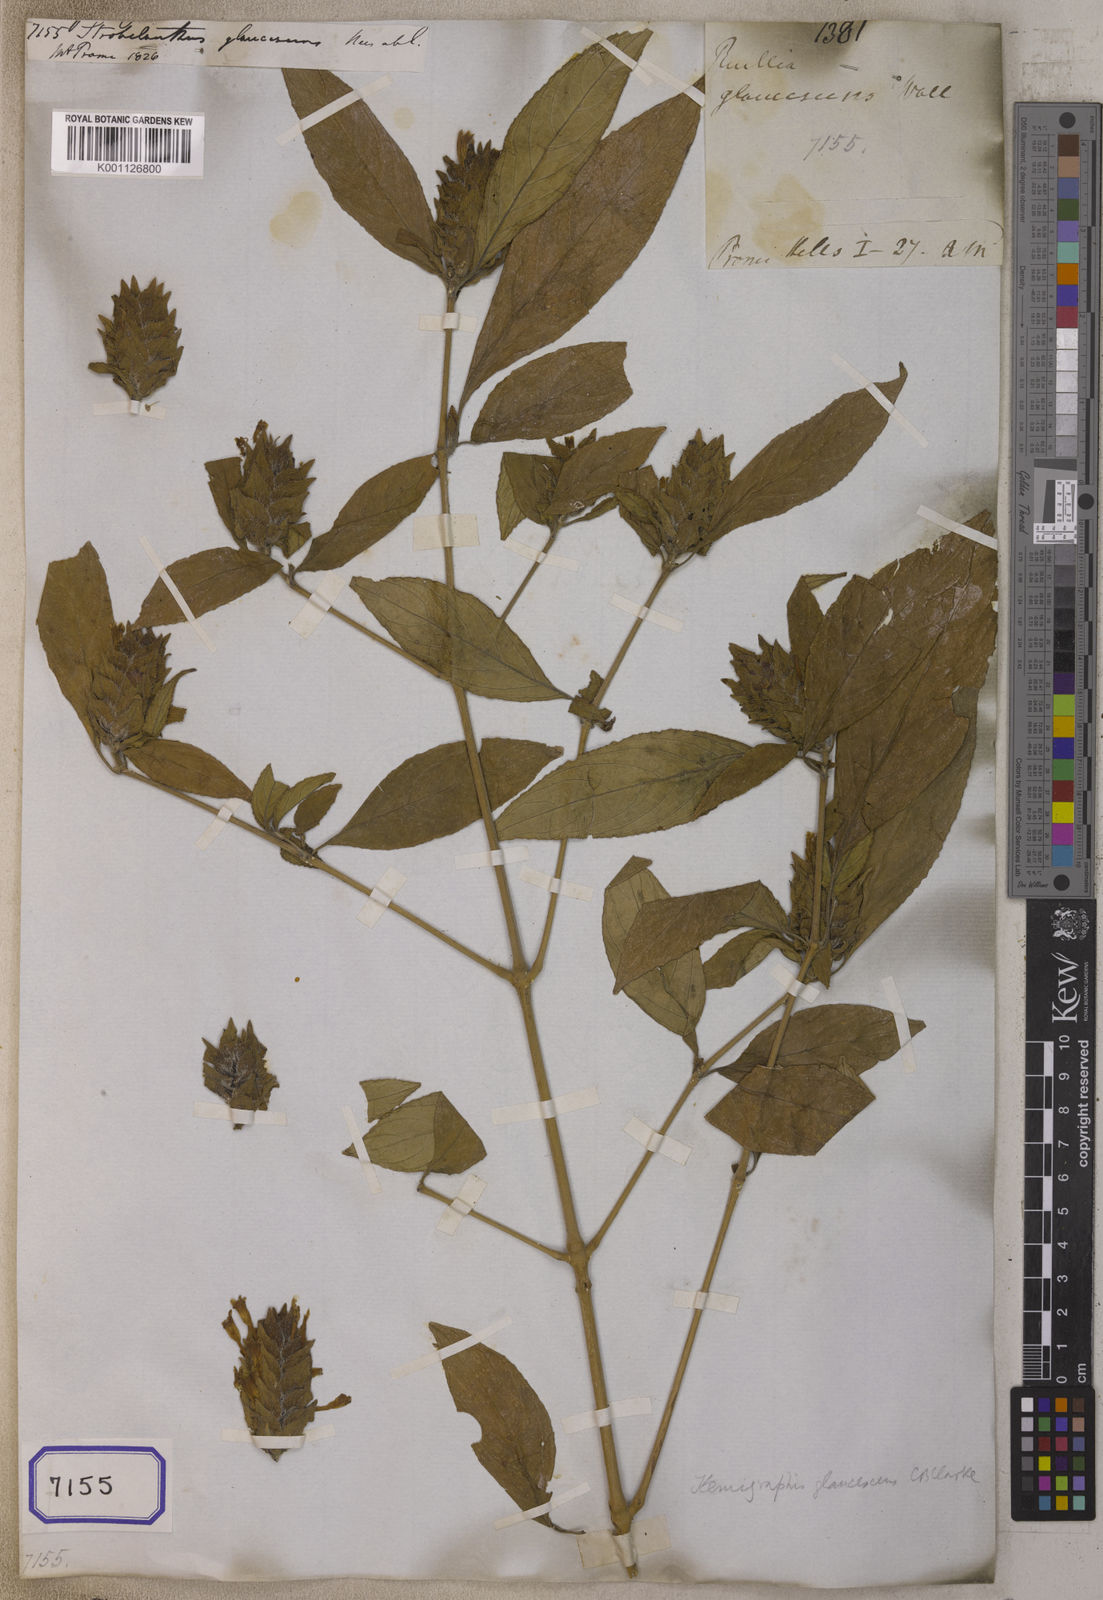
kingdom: Plantae
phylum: Tracheophyta
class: Magnoliopsida
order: Lamiales
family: Acanthaceae
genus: Strobilanthes
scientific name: Strobilanthes glaucescens
